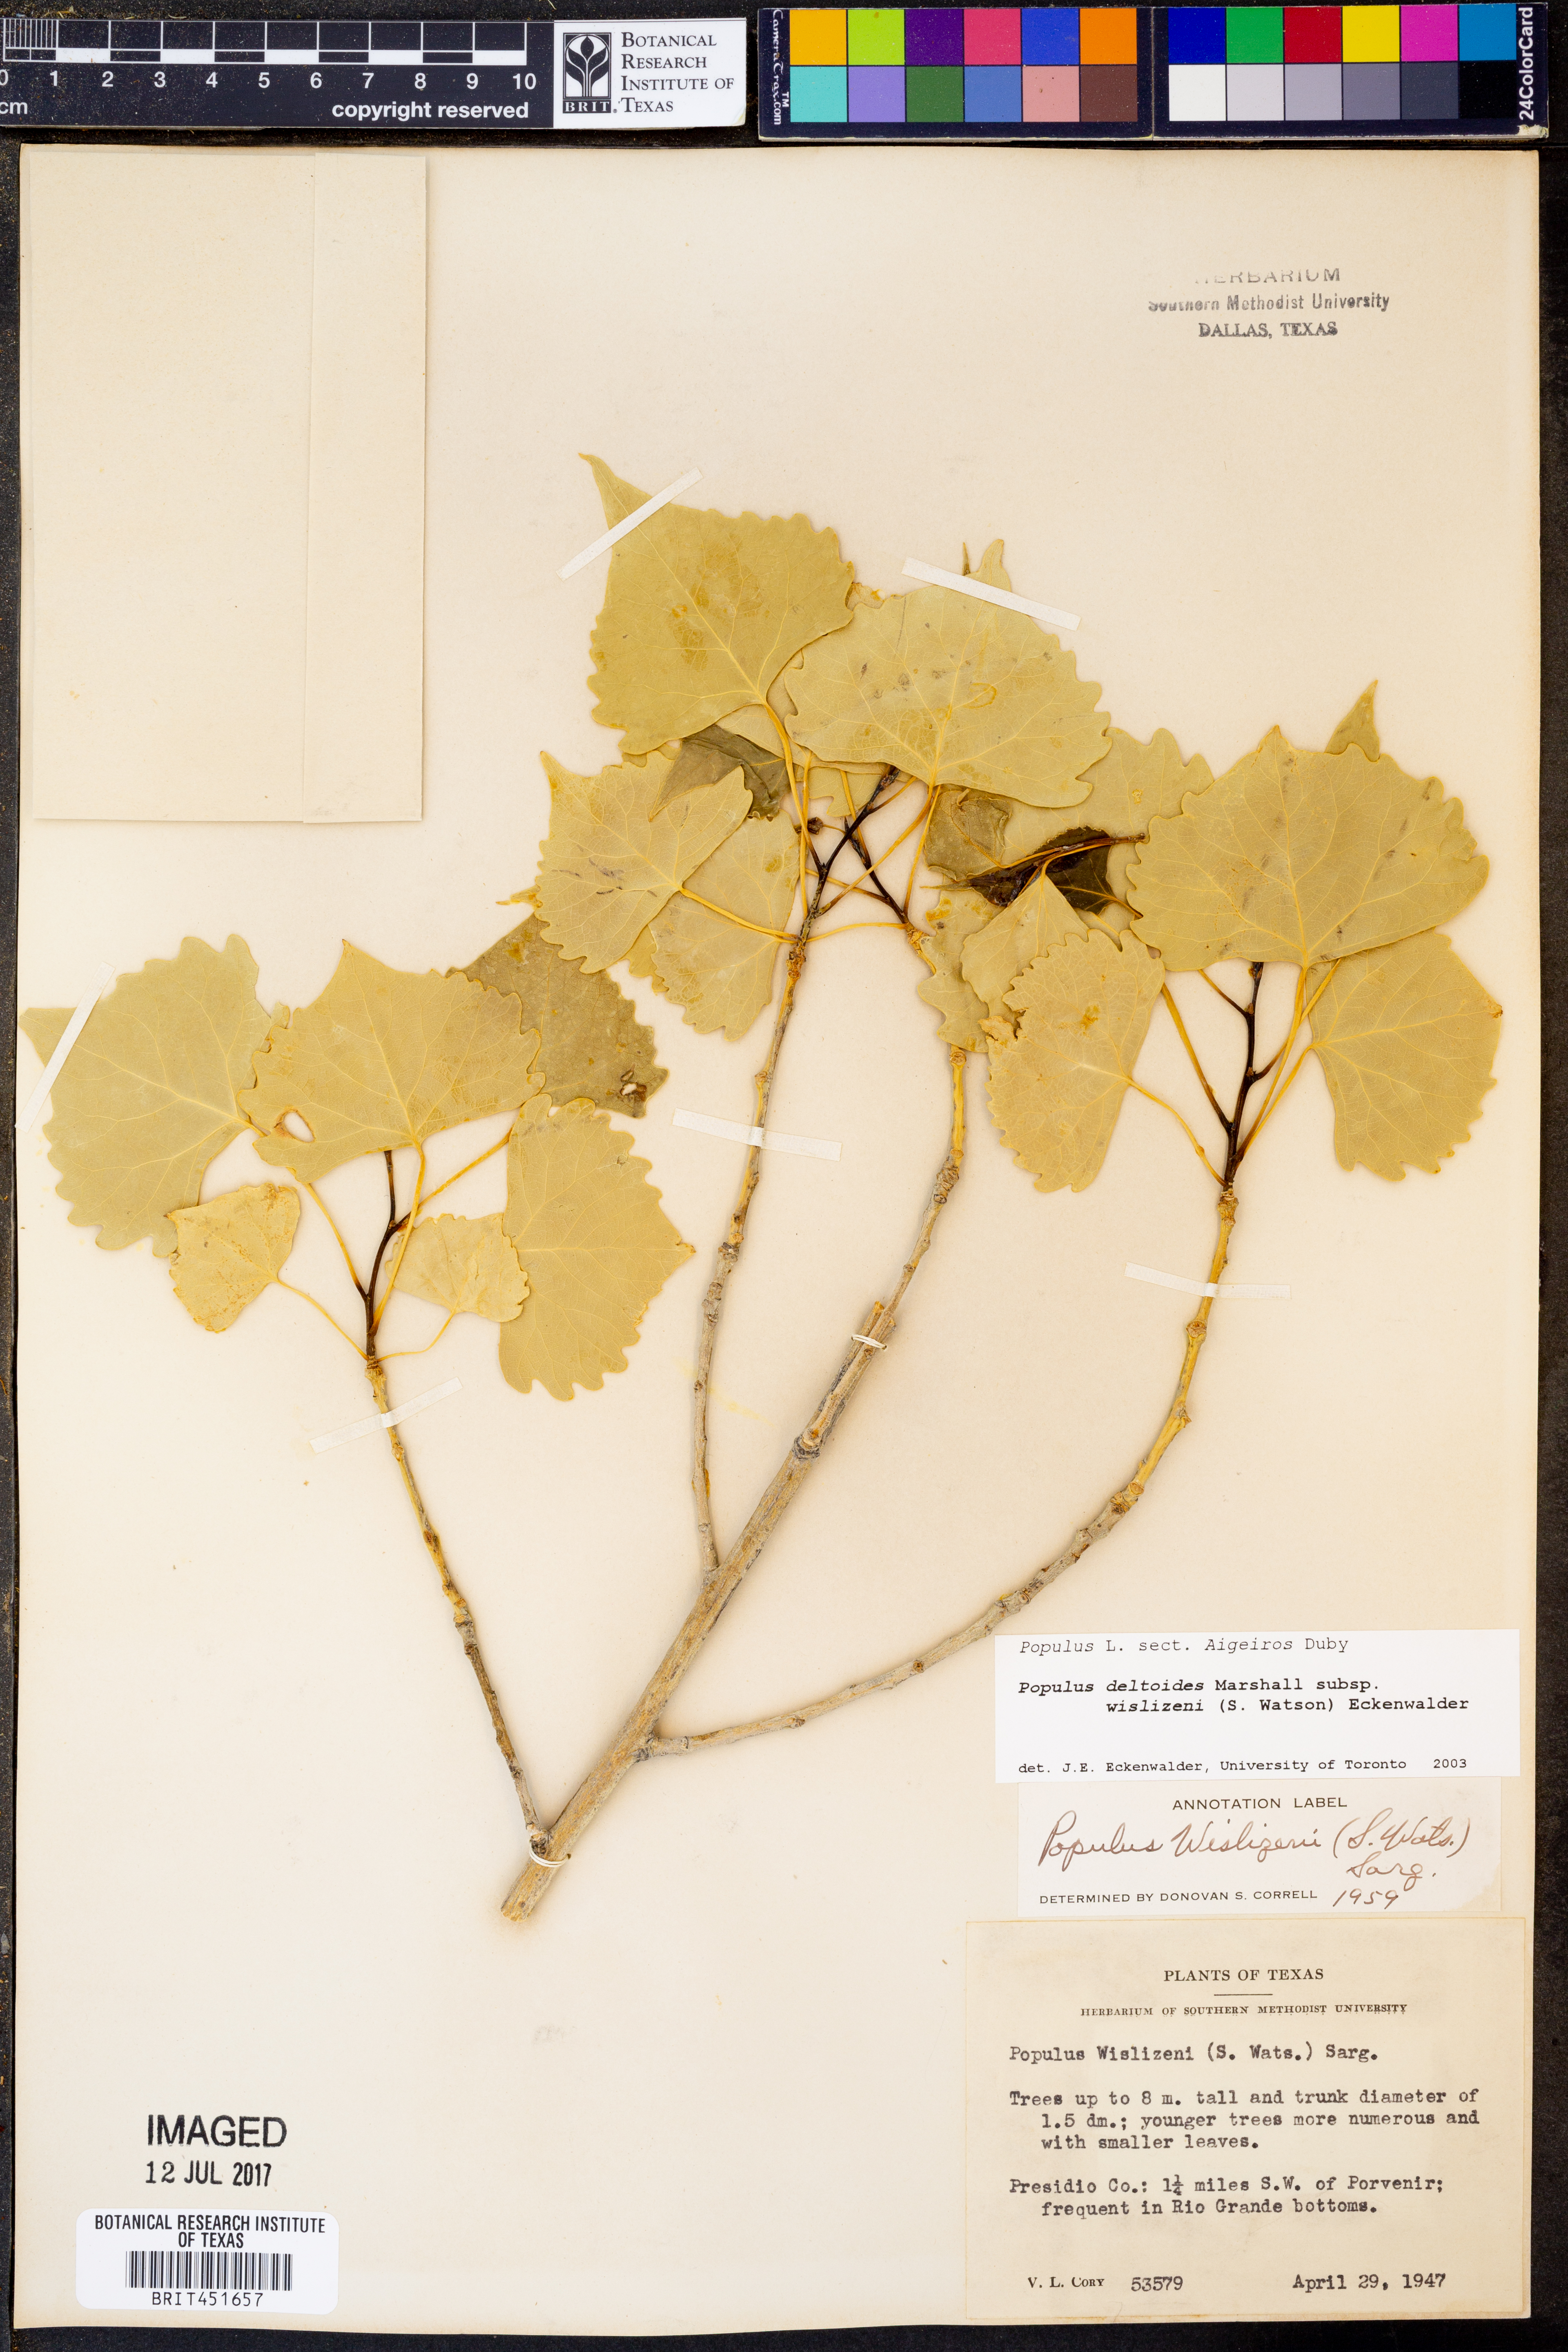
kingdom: Plantae
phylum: Tracheophyta
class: Magnoliopsida
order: Malpighiales
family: Salicaceae
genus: Populus
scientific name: Populus deltoides
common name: Eastern cottonwood
